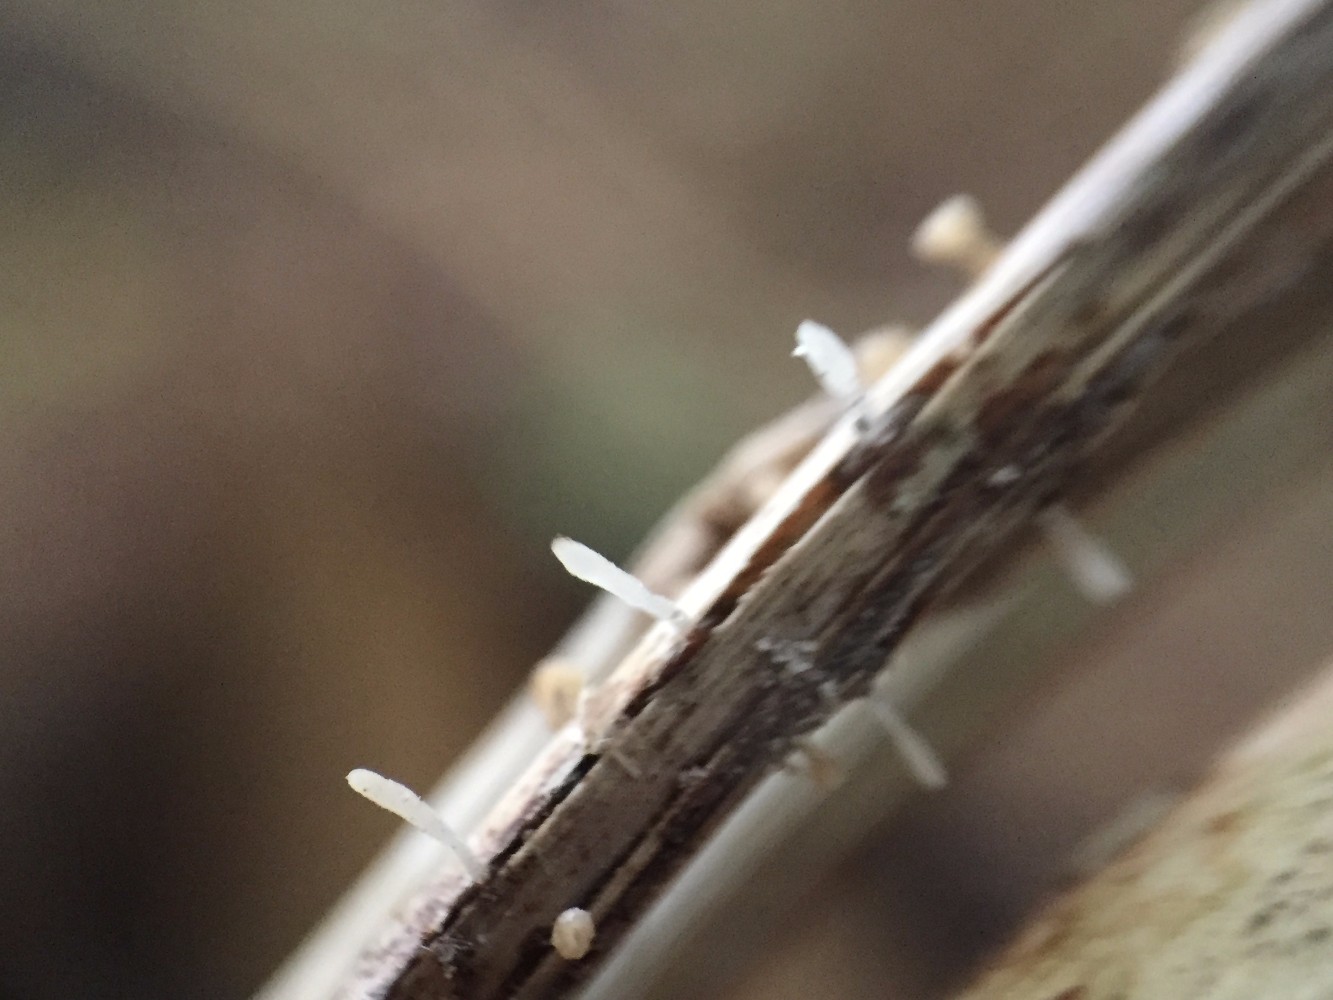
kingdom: Fungi
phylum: Basidiomycota
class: Agaricomycetes
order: Agaricales
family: Typhulaceae
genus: Typhula
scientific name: Typhula
